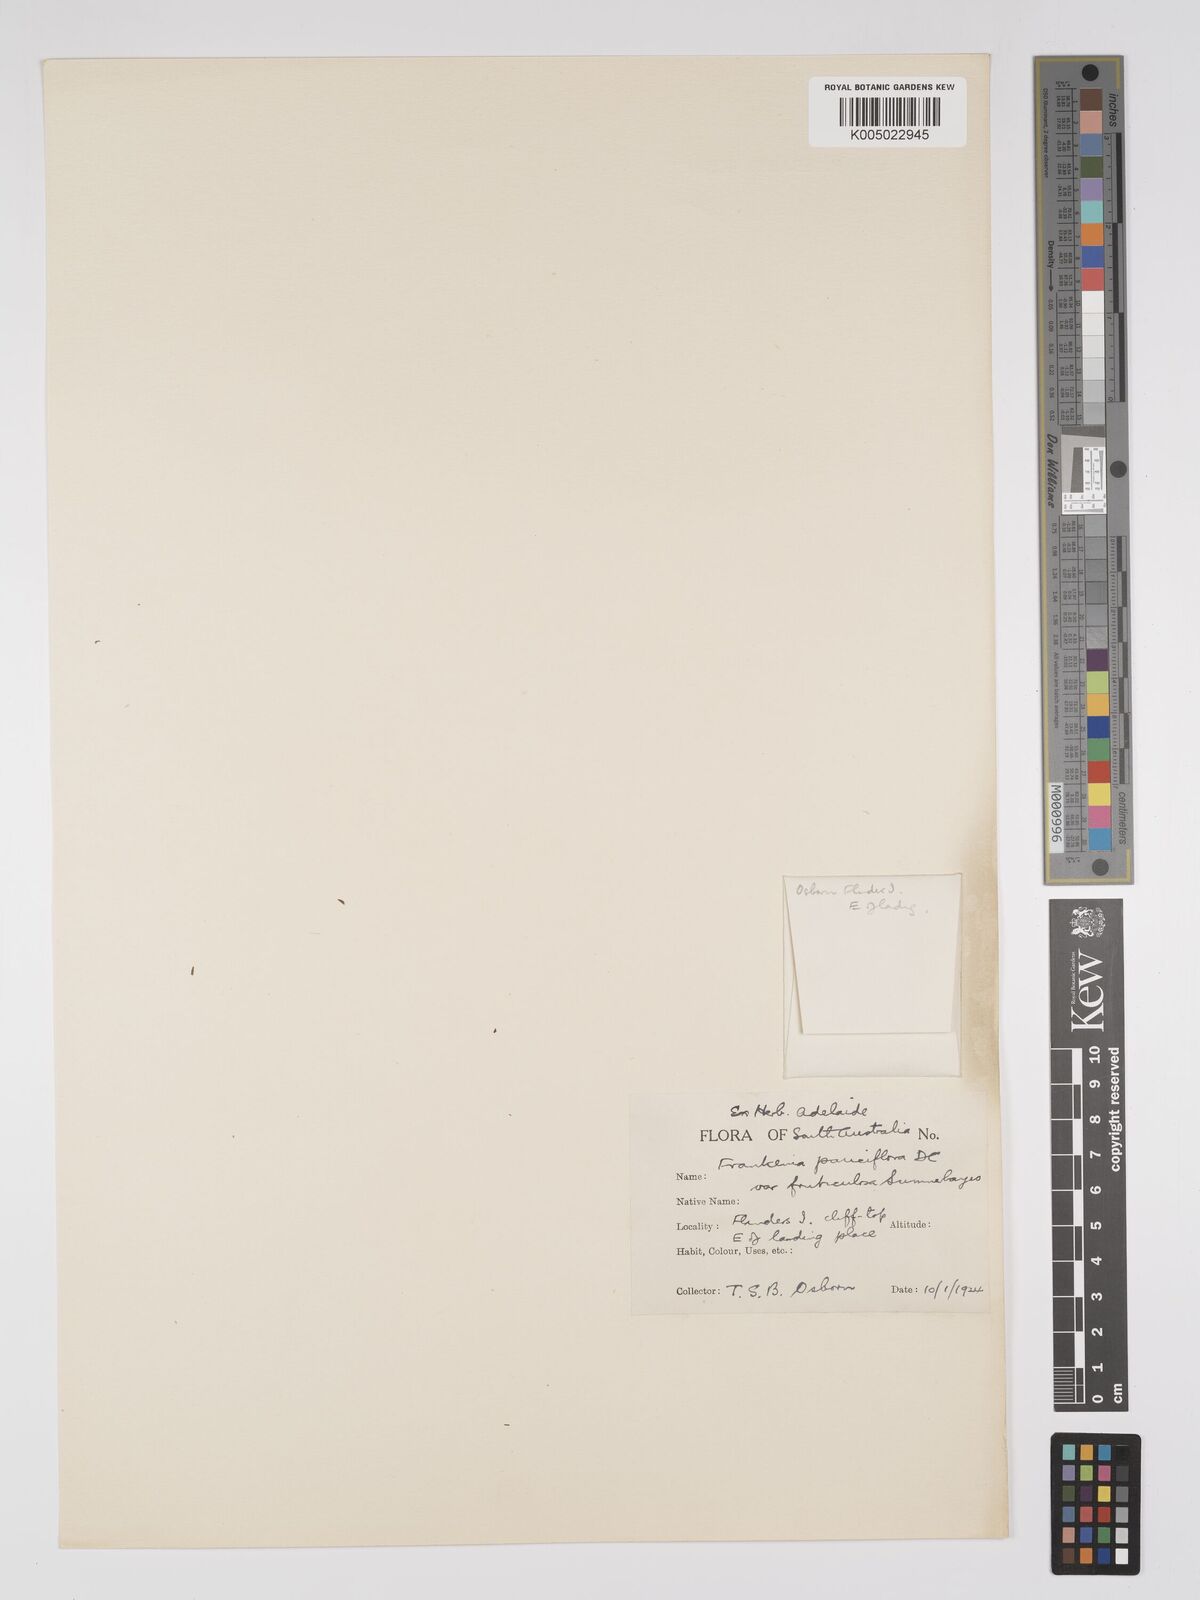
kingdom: Plantae
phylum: Tracheophyta
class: Magnoliopsida
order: Caryophyllales
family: Frankeniaceae
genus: Frankenia
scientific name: Frankenia pauciflora
